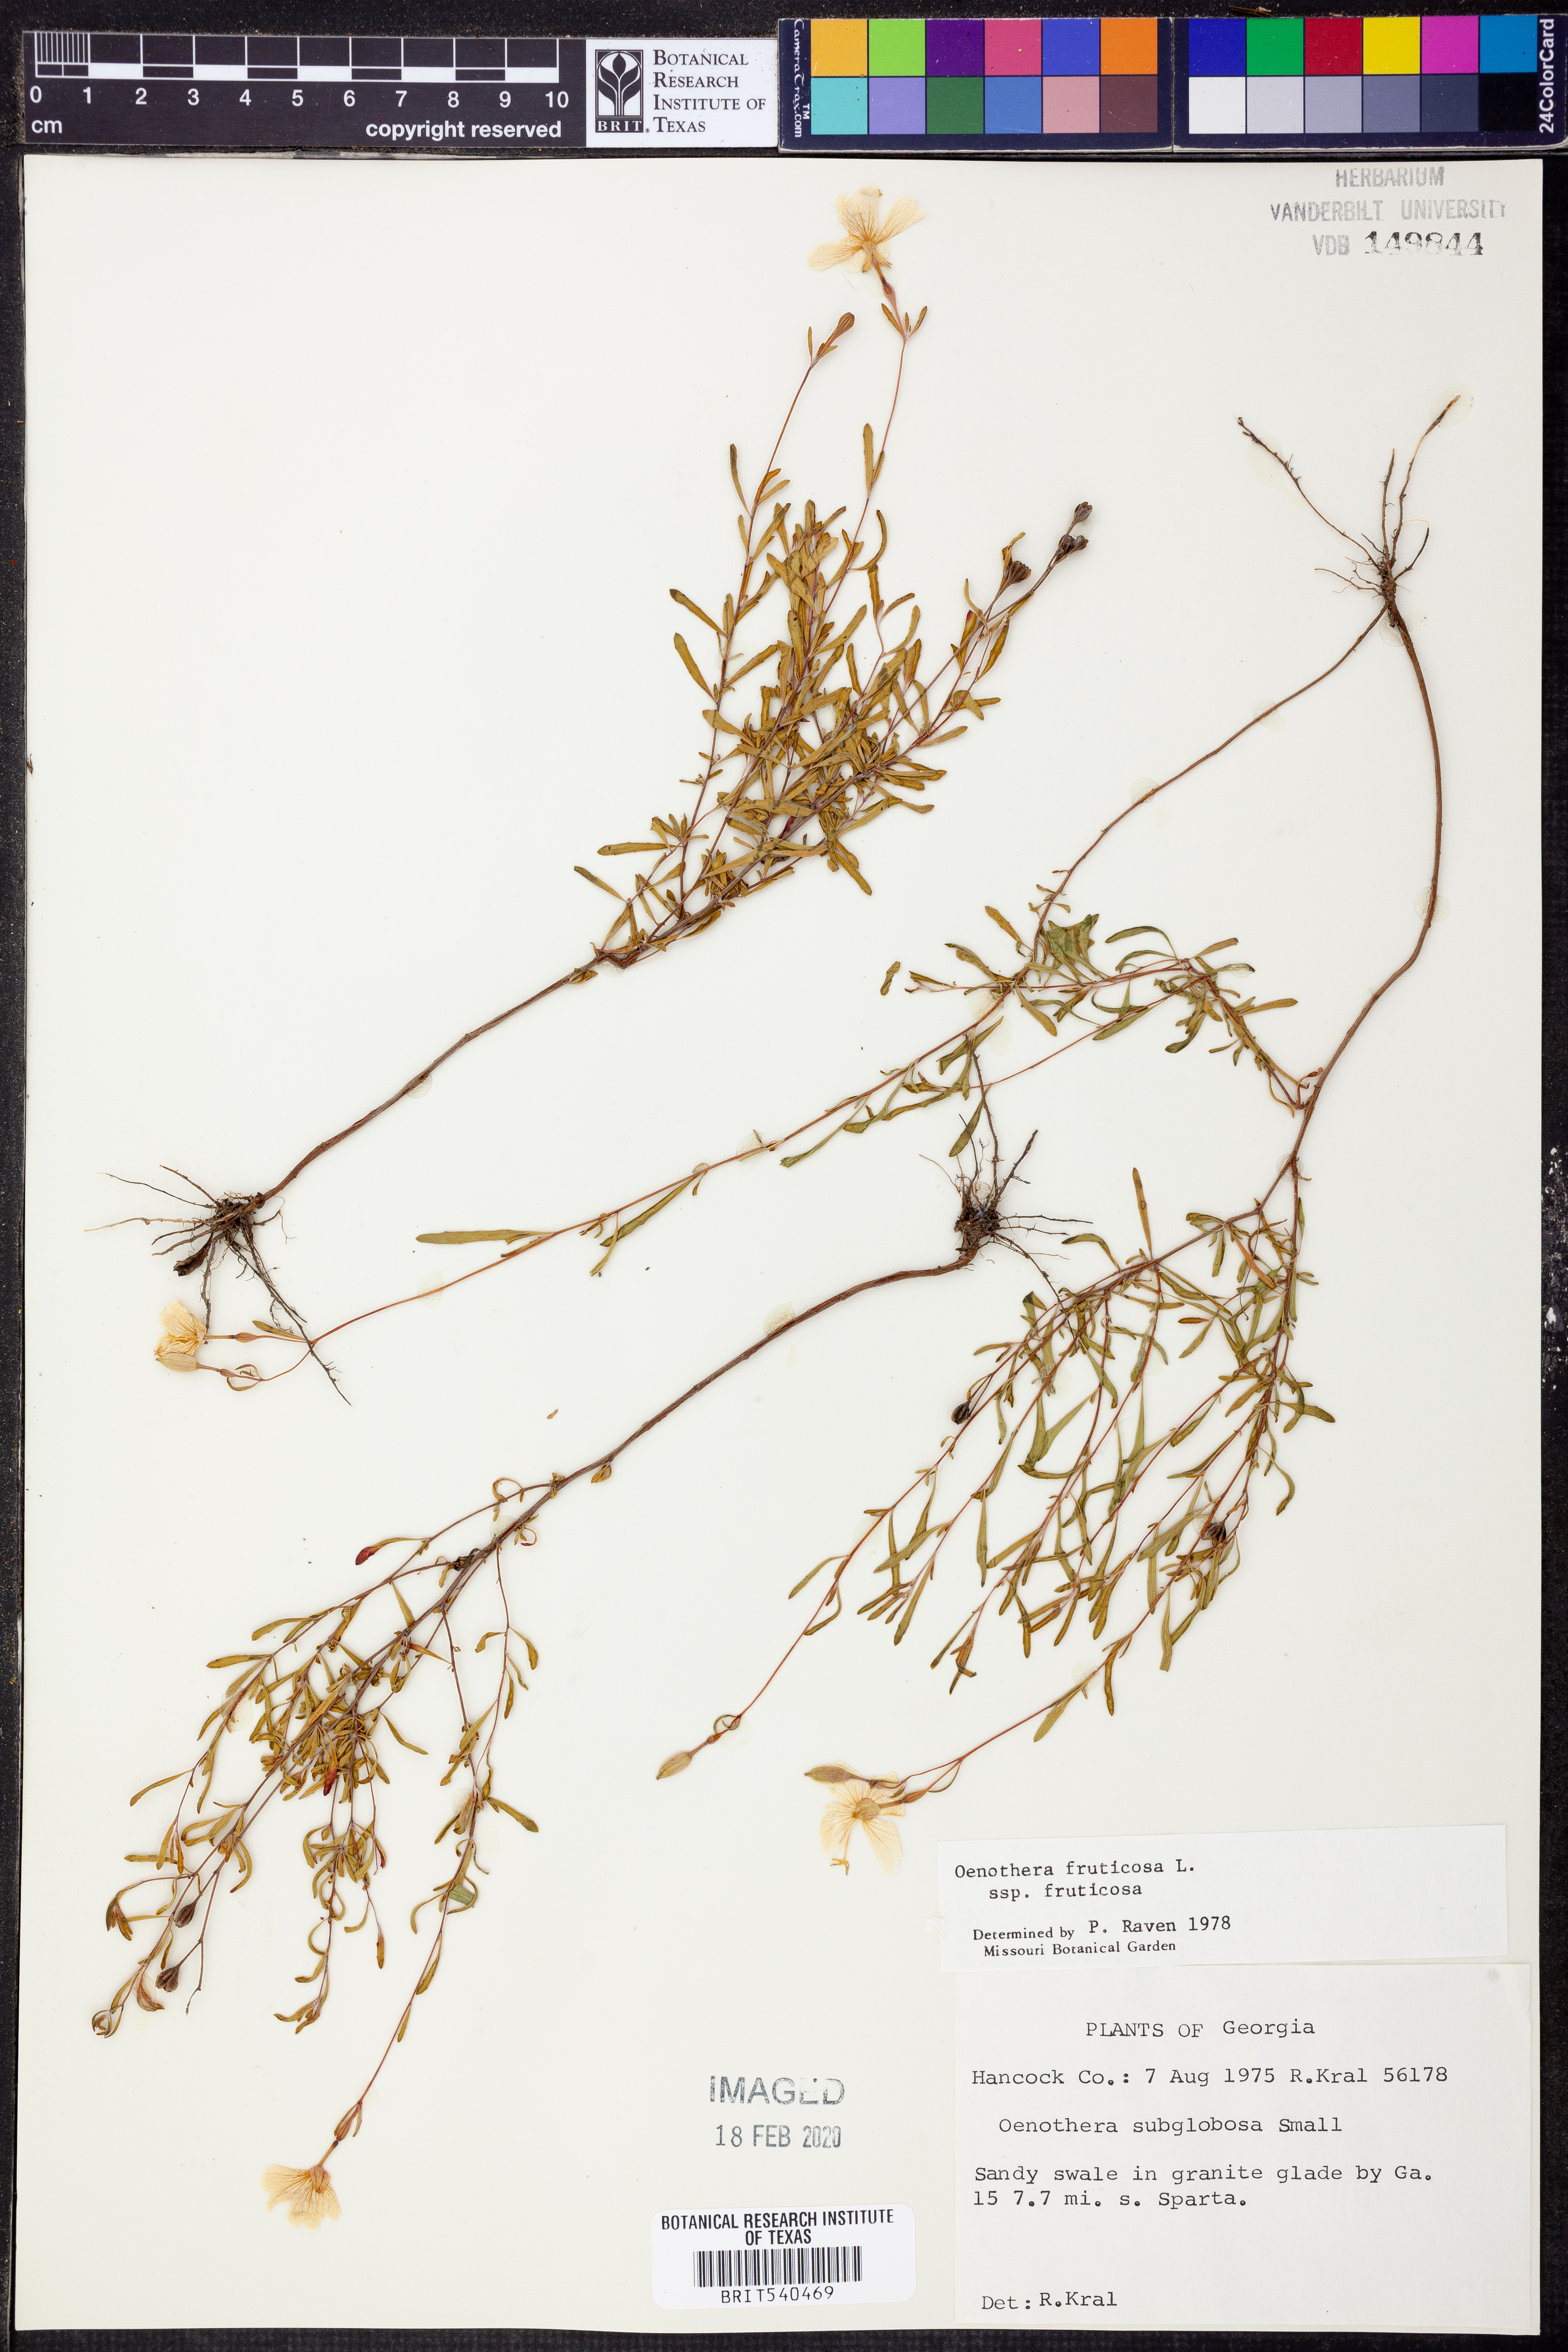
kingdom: Plantae
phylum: Tracheophyta
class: Magnoliopsida
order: Myrtales
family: Onagraceae
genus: Oenothera
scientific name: Oenothera fruticosa
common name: Southern sundrops
